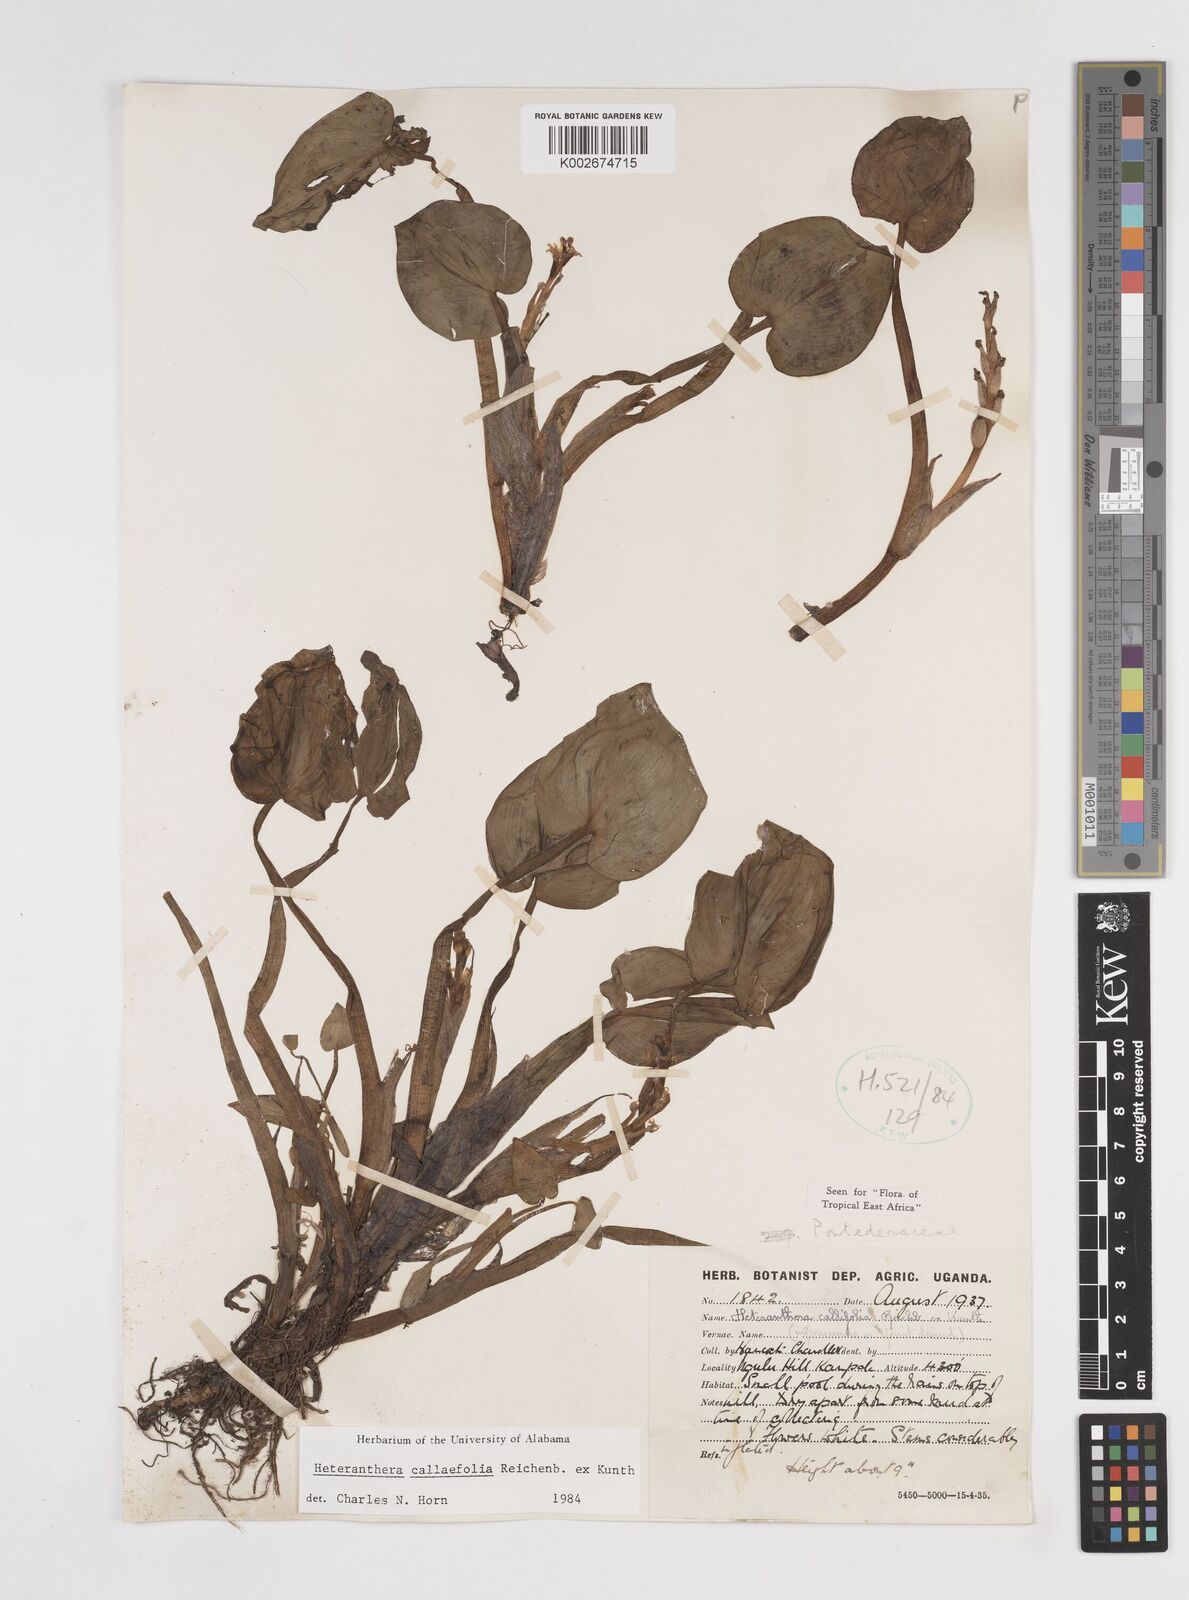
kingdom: Plantae
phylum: Tracheophyta
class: Liliopsida
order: Commelinales
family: Pontederiaceae
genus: Heteranthera
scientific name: Heteranthera callifolia
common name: Mud plantain
